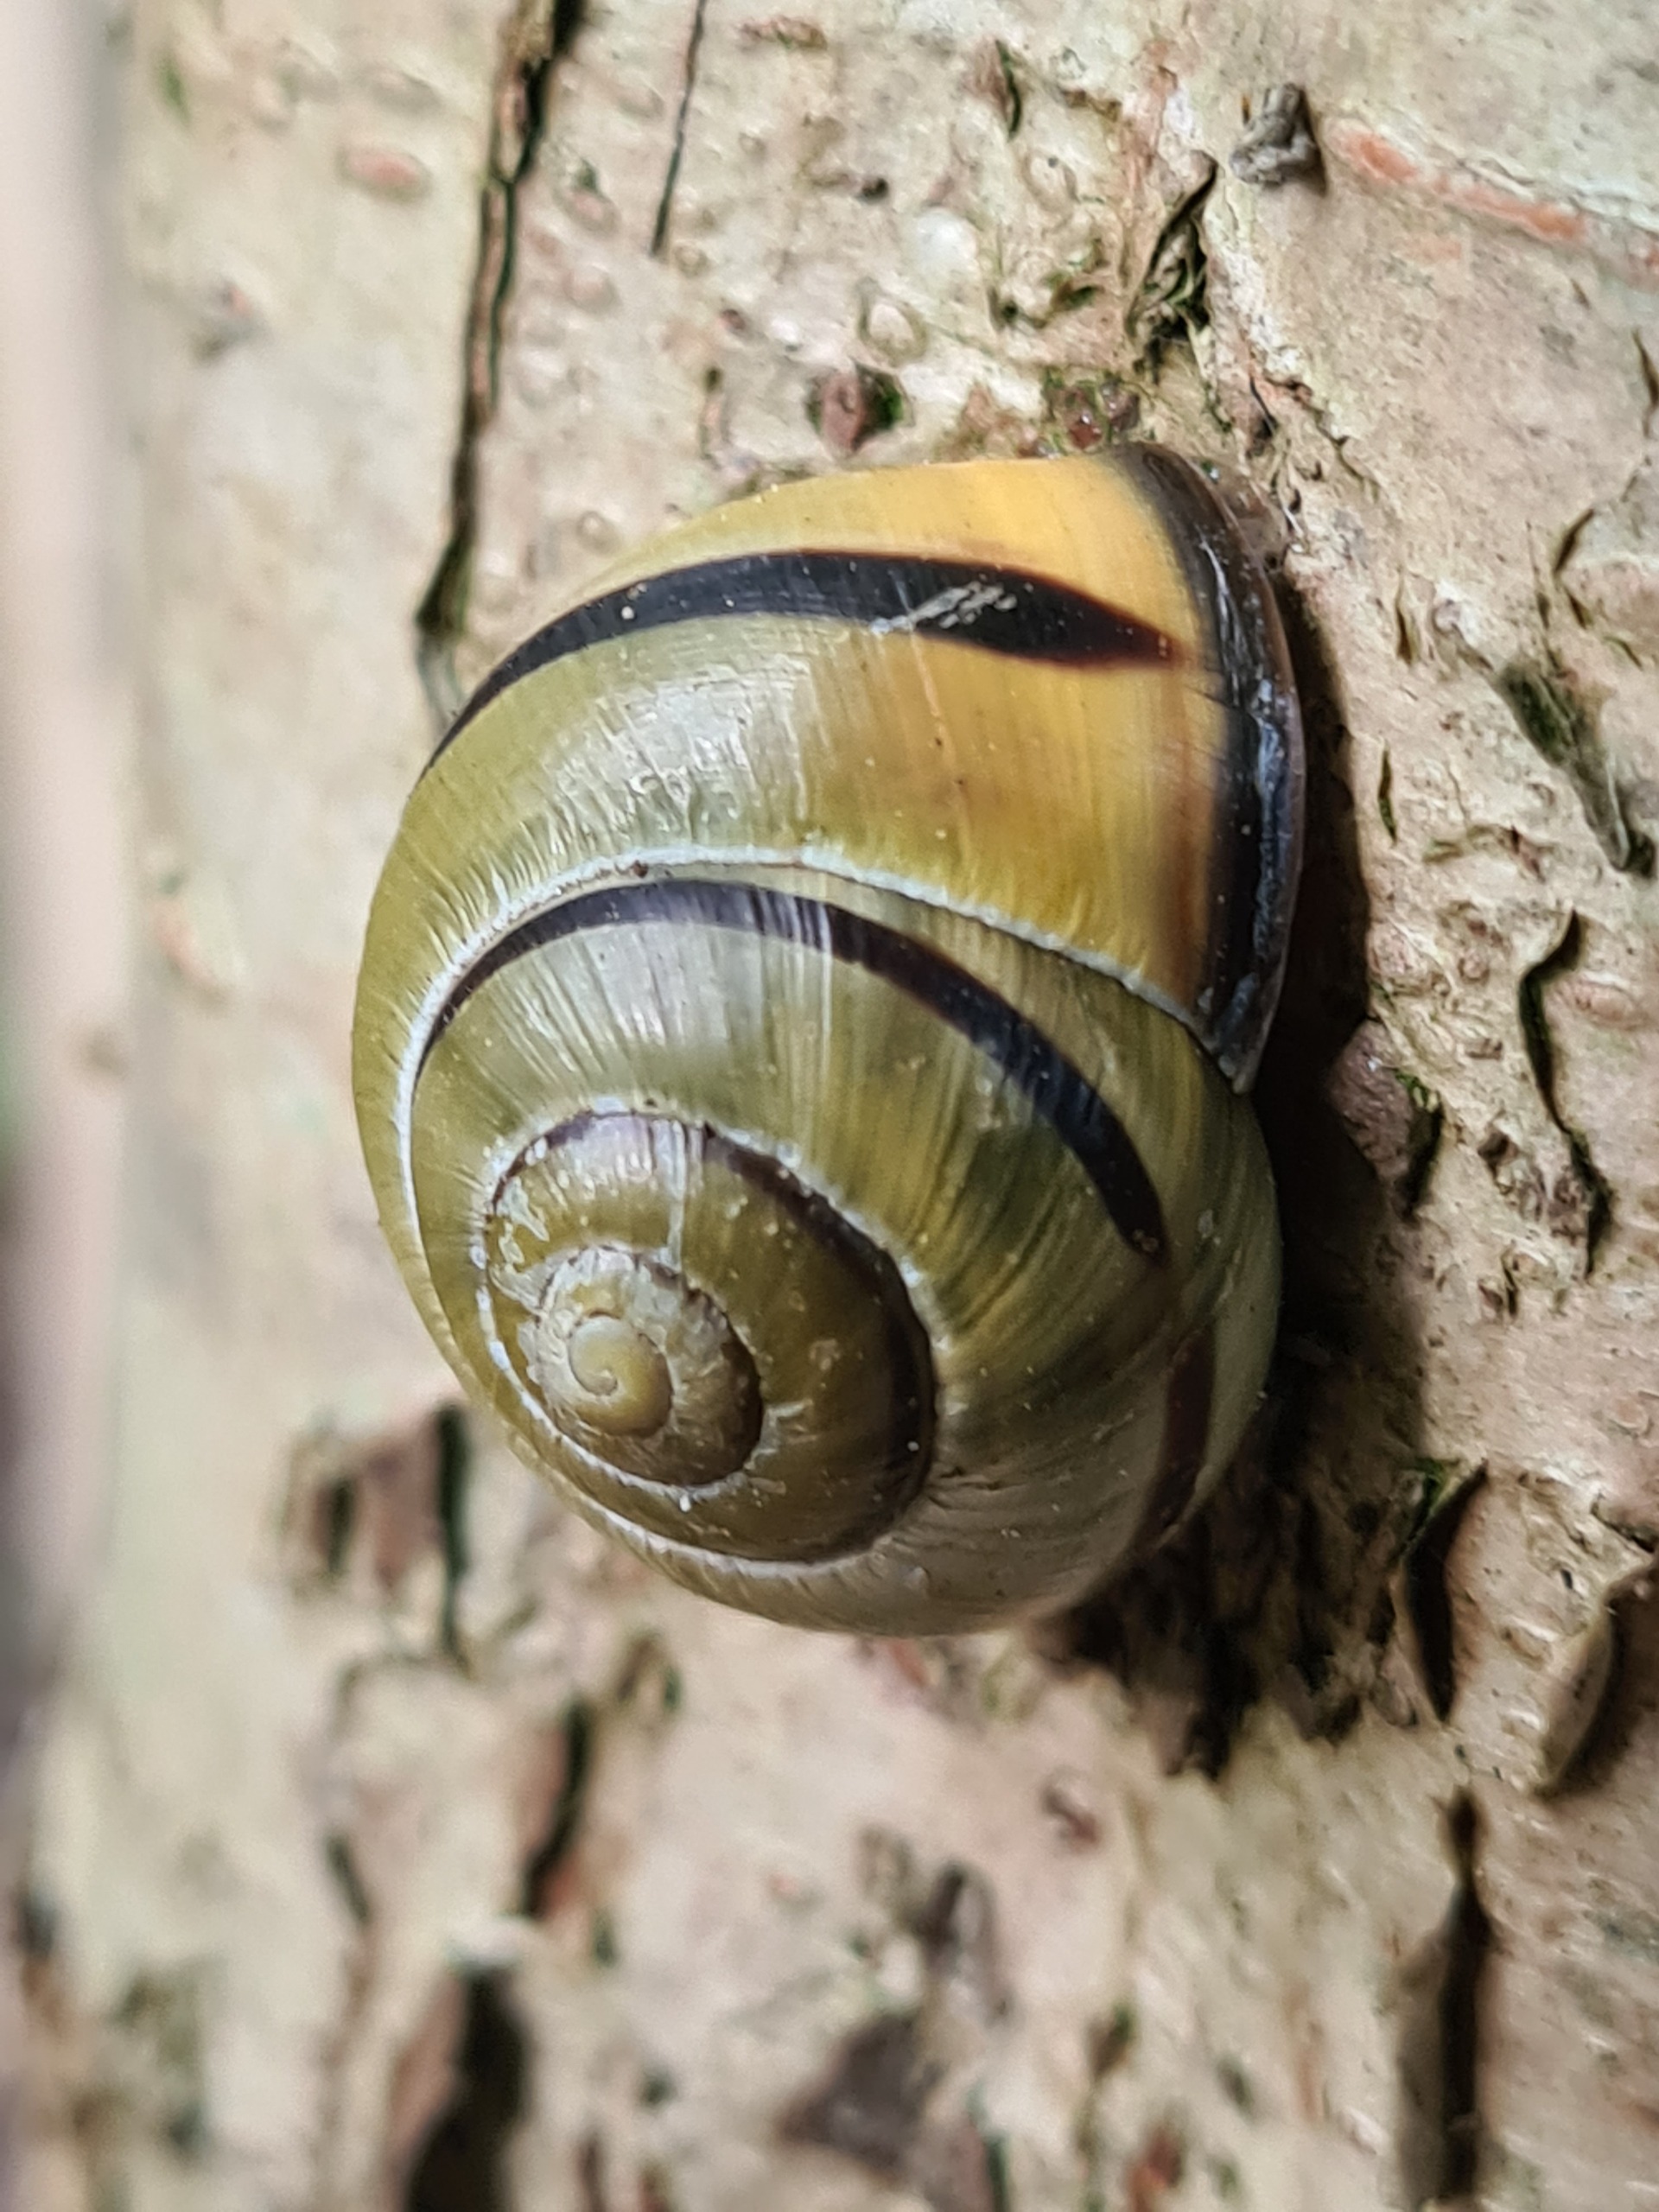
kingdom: Animalia
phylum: Mollusca
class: Gastropoda
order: Stylommatophora
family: Helicidae
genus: Cepaea
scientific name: Cepaea nemoralis
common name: Lundsnegl
